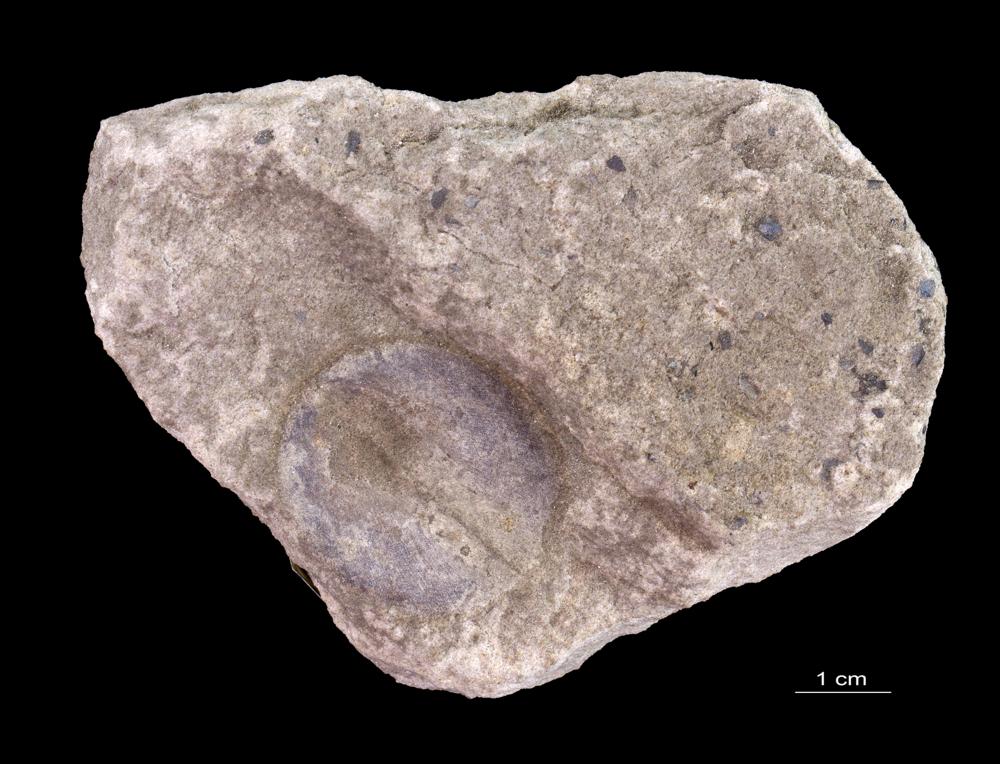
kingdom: Animalia
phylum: Brachiopoda
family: Paterinidae
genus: Mickwitzia
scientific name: Mickwitzia
